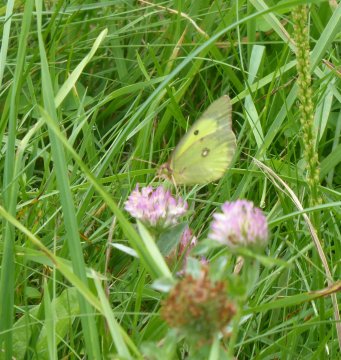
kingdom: Animalia
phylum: Arthropoda
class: Insecta
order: Lepidoptera
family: Pieridae
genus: Colias
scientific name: Colias philodice
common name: Clouded Sulphur
